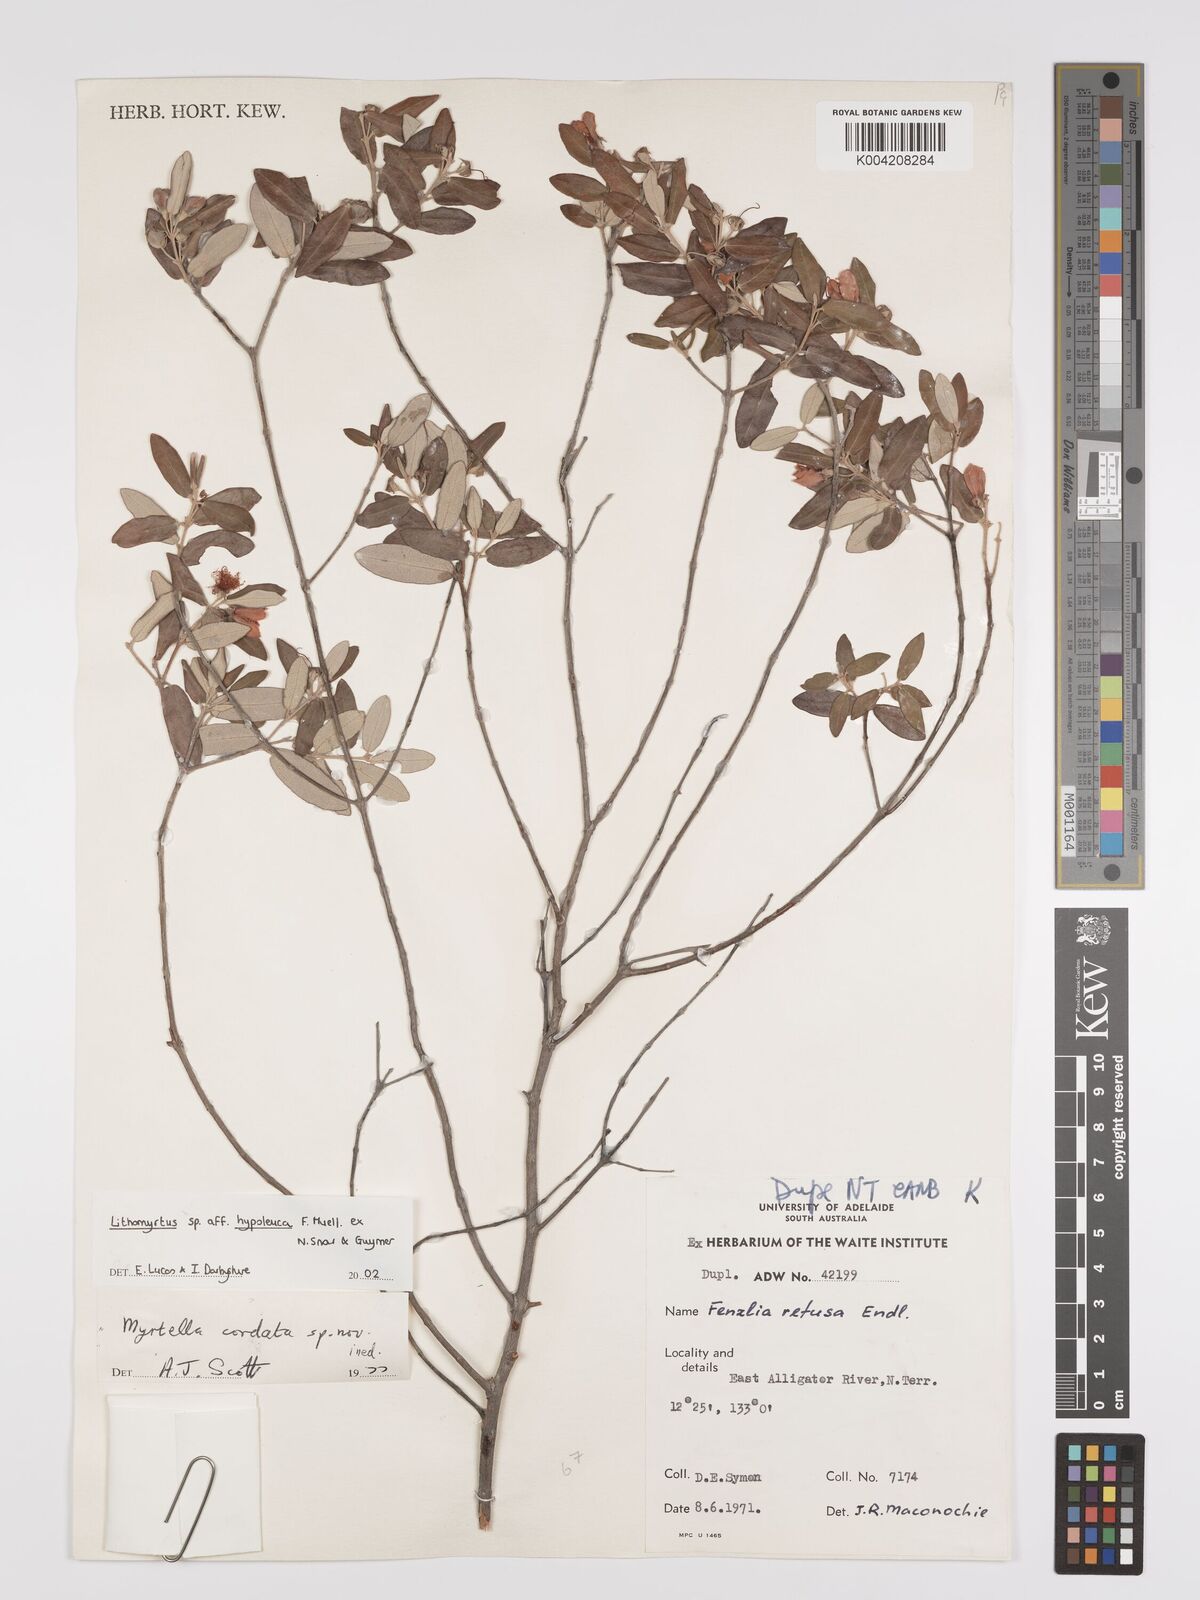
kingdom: Plantae
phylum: Tracheophyta
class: Magnoliopsida
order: Myrtales
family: Myrtaceae
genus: Lithomyrtus
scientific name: Lithomyrtus hypoleuca
